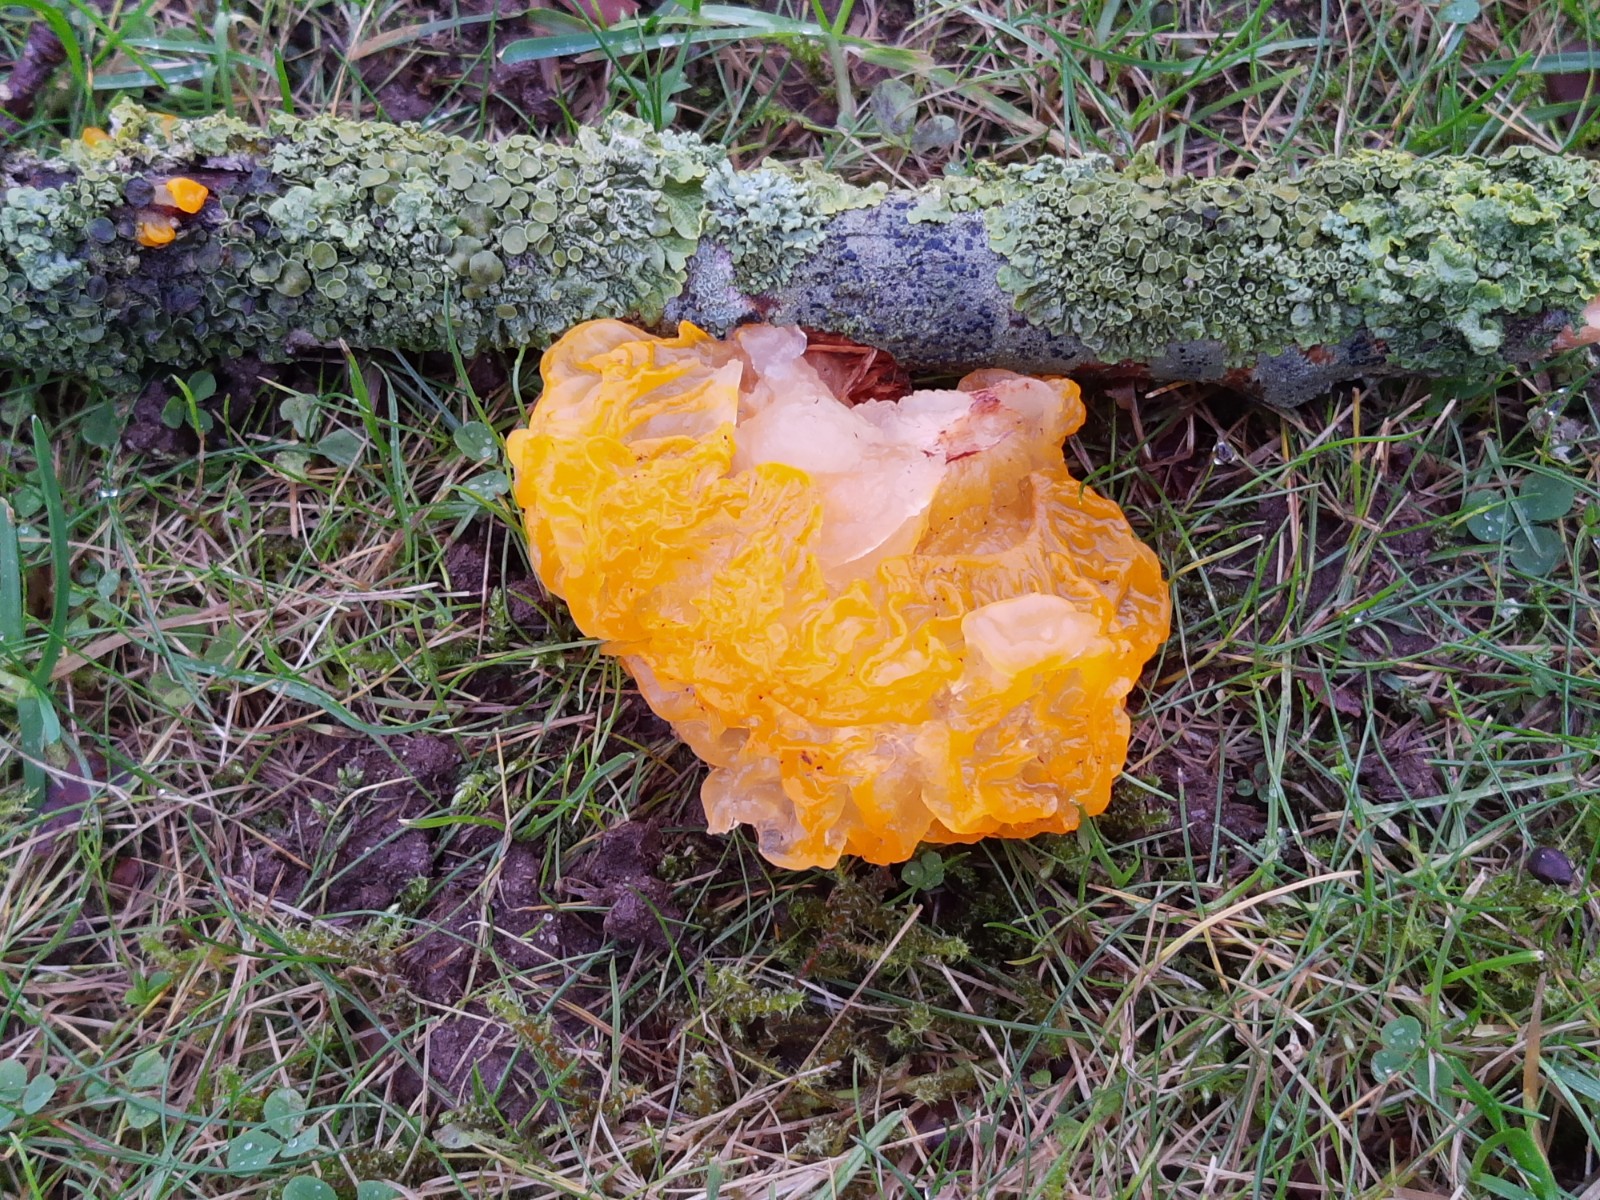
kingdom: Fungi
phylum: Basidiomycota
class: Tremellomycetes
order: Tremellales
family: Tremellaceae
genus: Tremella
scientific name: Tremella mesenterica
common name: gul bævresvamp
